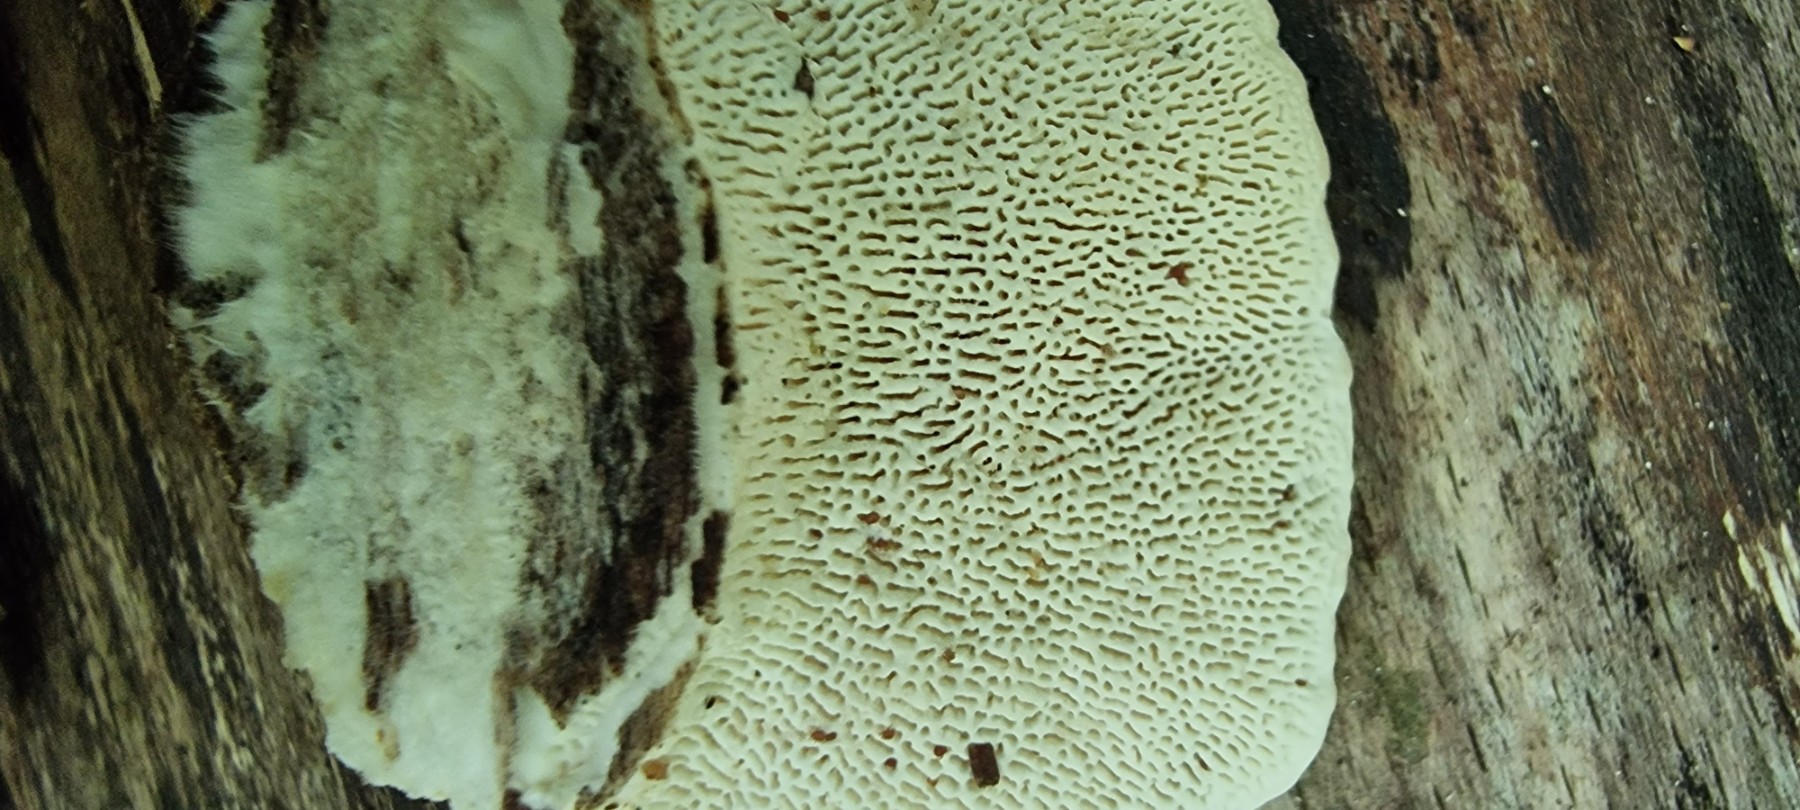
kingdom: Fungi
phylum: Basidiomycota
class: Agaricomycetes
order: Polyporales
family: Polyporaceae
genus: Trametes
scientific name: Trametes gibbosa
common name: puklet læderporesvamp
